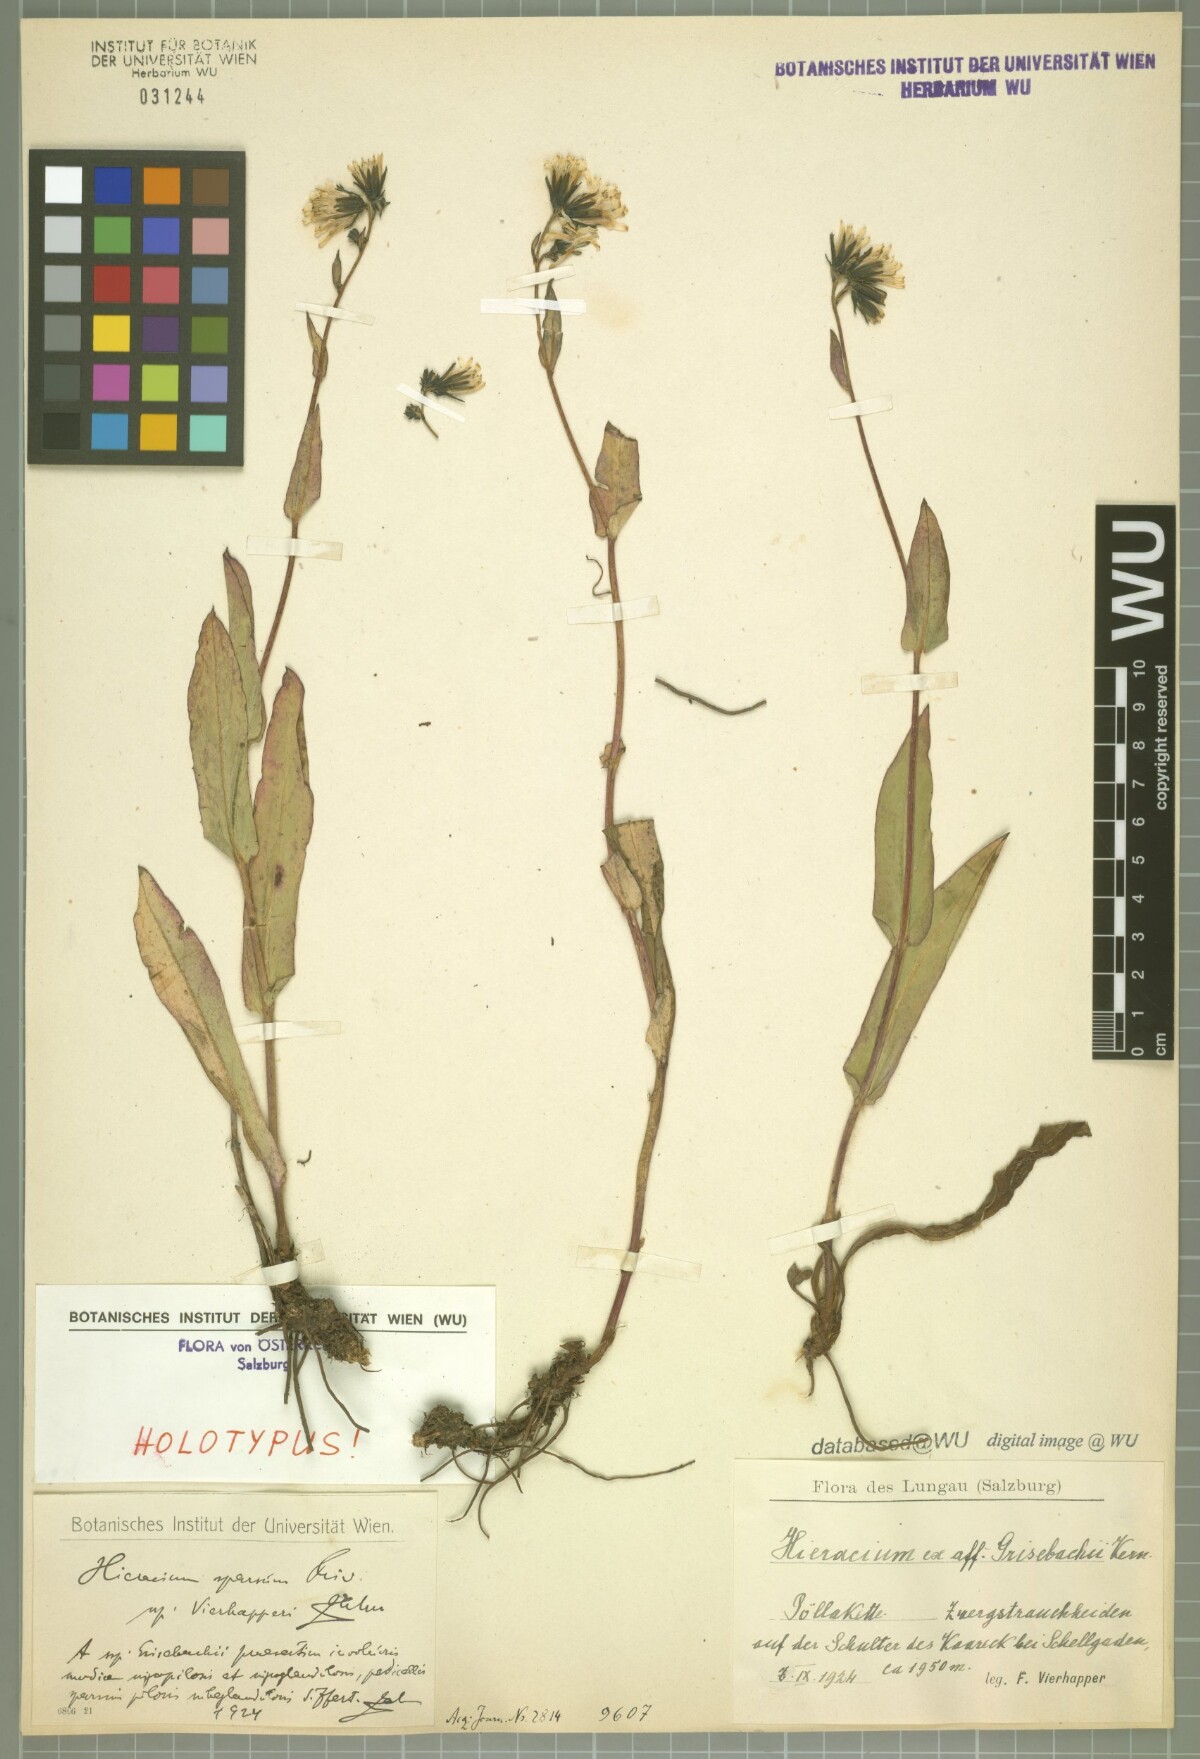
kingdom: Plantae
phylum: Tracheophyta
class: Magnoliopsida
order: Asterales
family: Asteraceae
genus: Hieracium
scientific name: Hieracium sparsum
